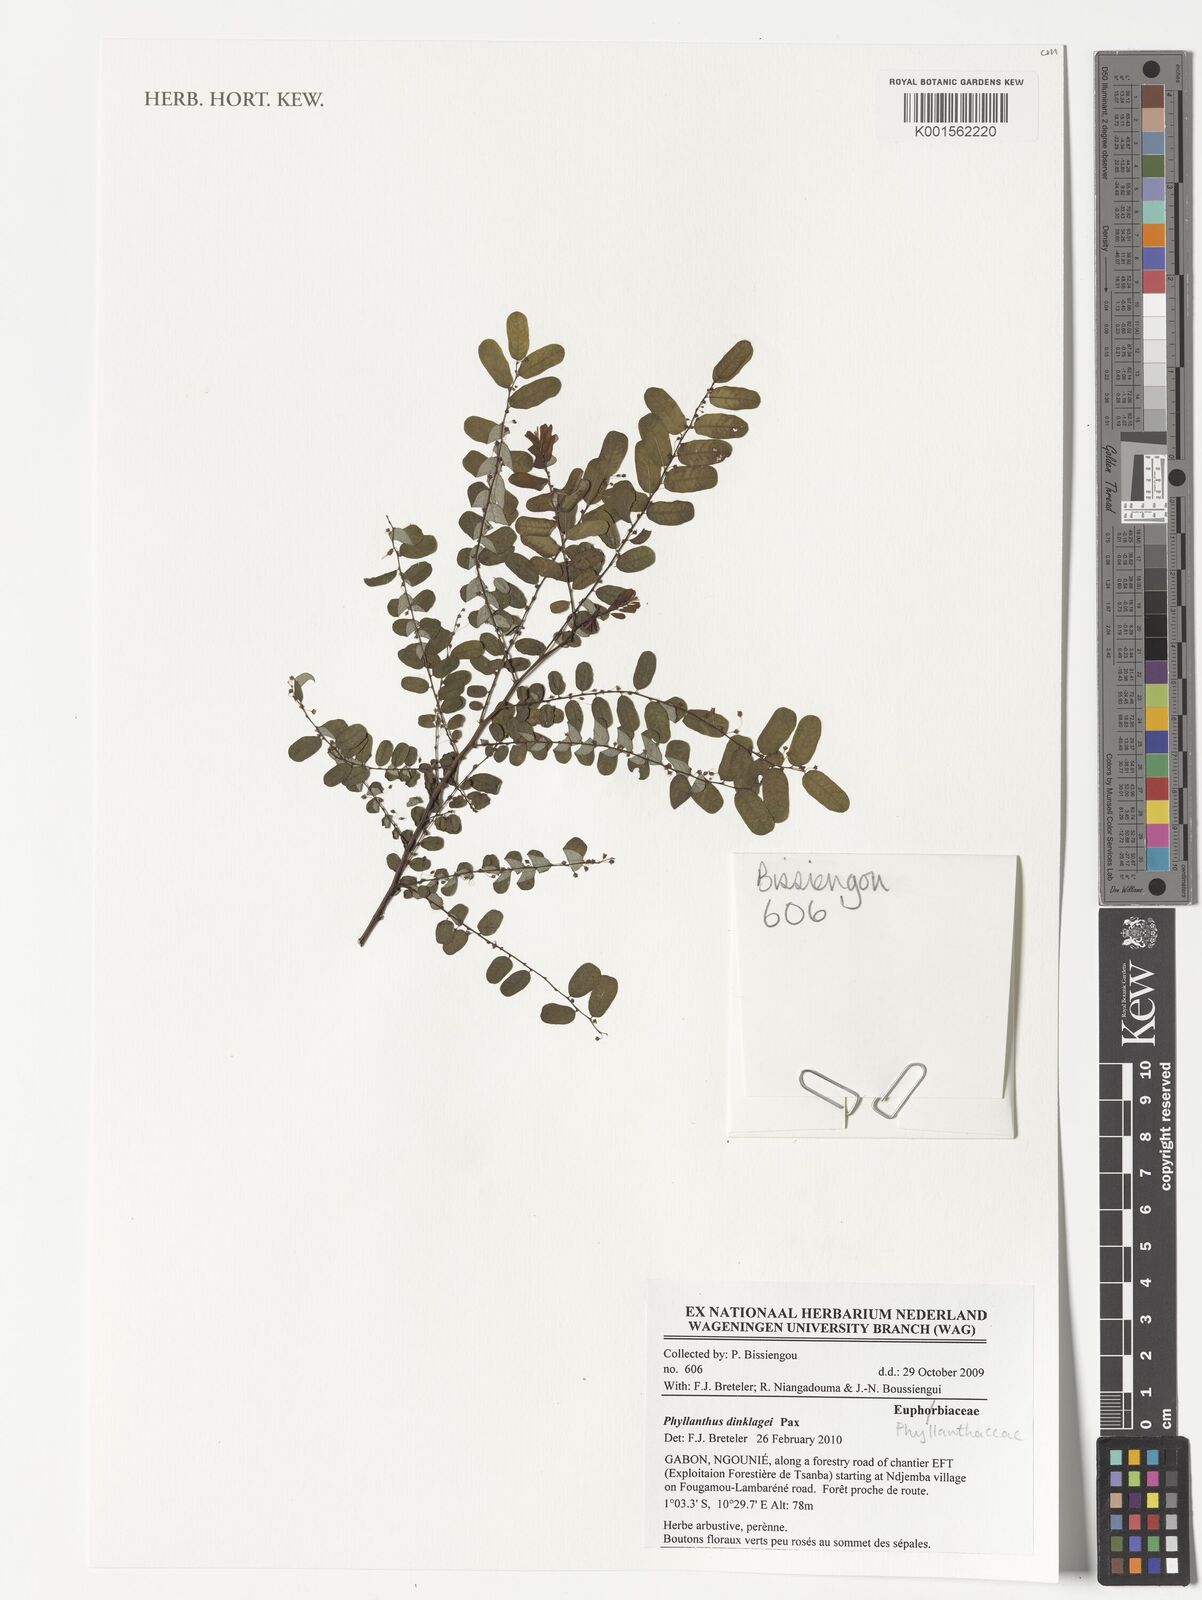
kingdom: Plantae
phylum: Tracheophyta
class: Magnoliopsida
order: Malpighiales
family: Phyllanthaceae
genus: Phyllanthus
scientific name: Phyllanthus dinklagei
